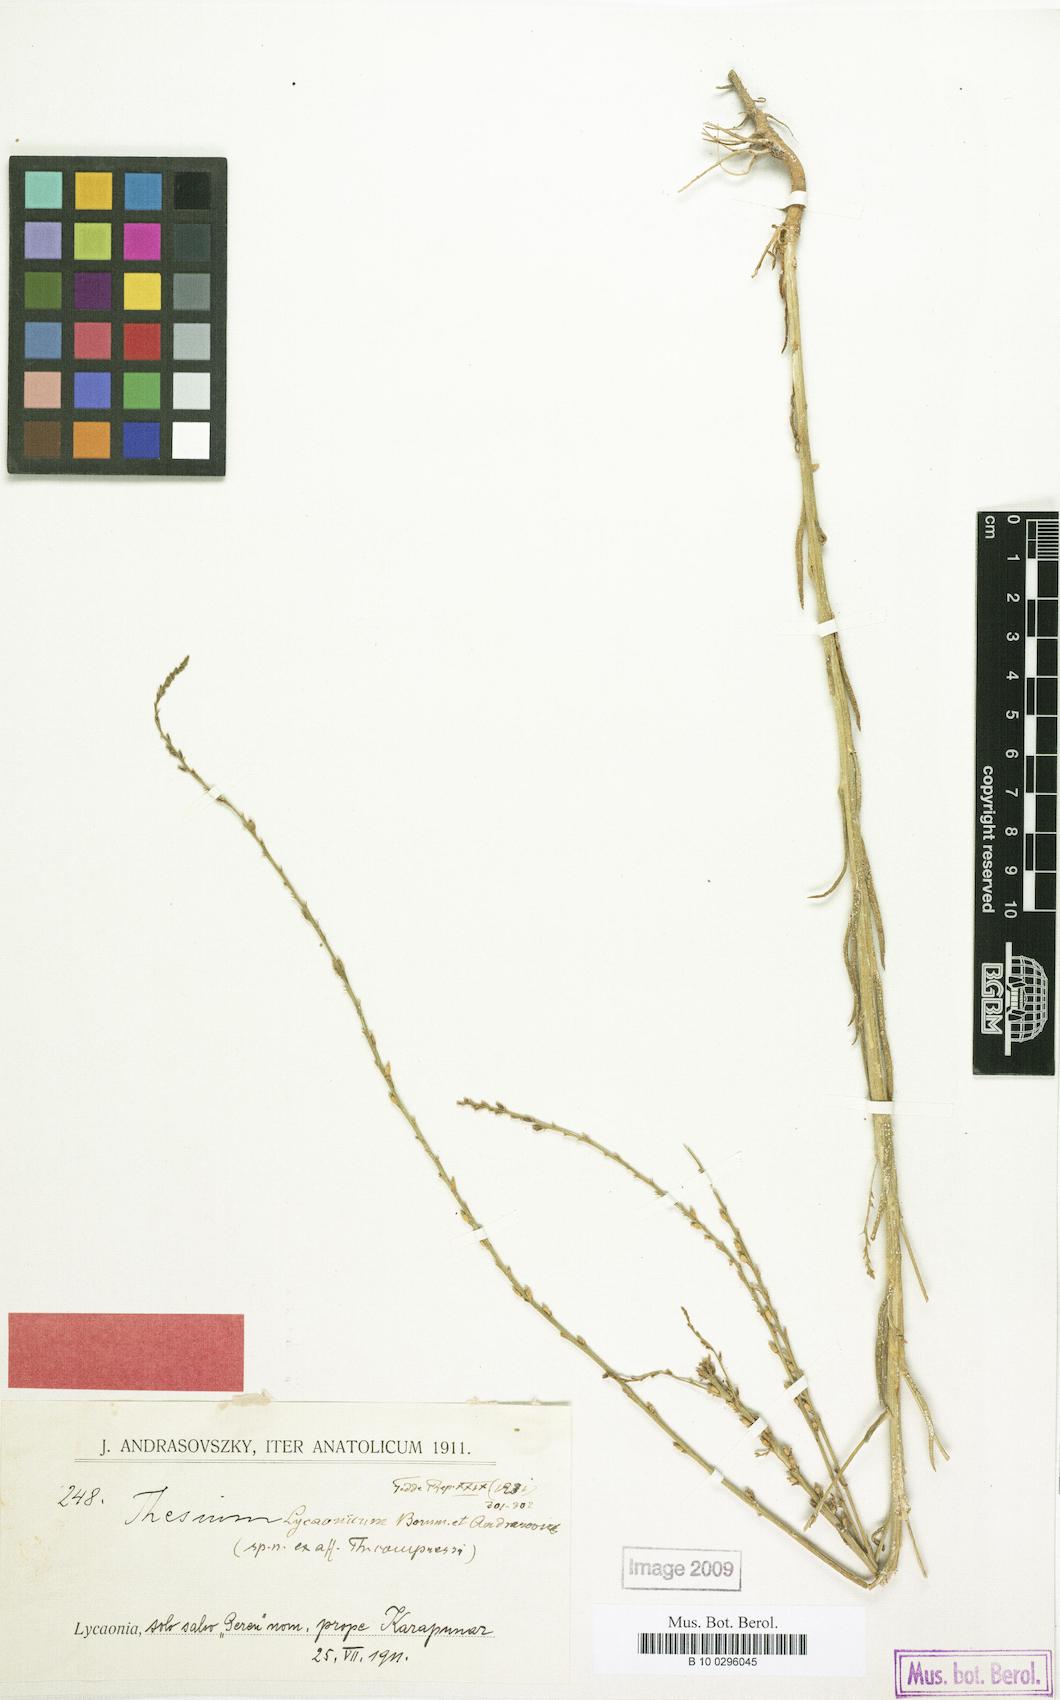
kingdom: Plantae
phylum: Tracheophyta
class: Magnoliopsida
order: Santalales
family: Thesiaceae
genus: Thesium
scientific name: Thesium compressum
